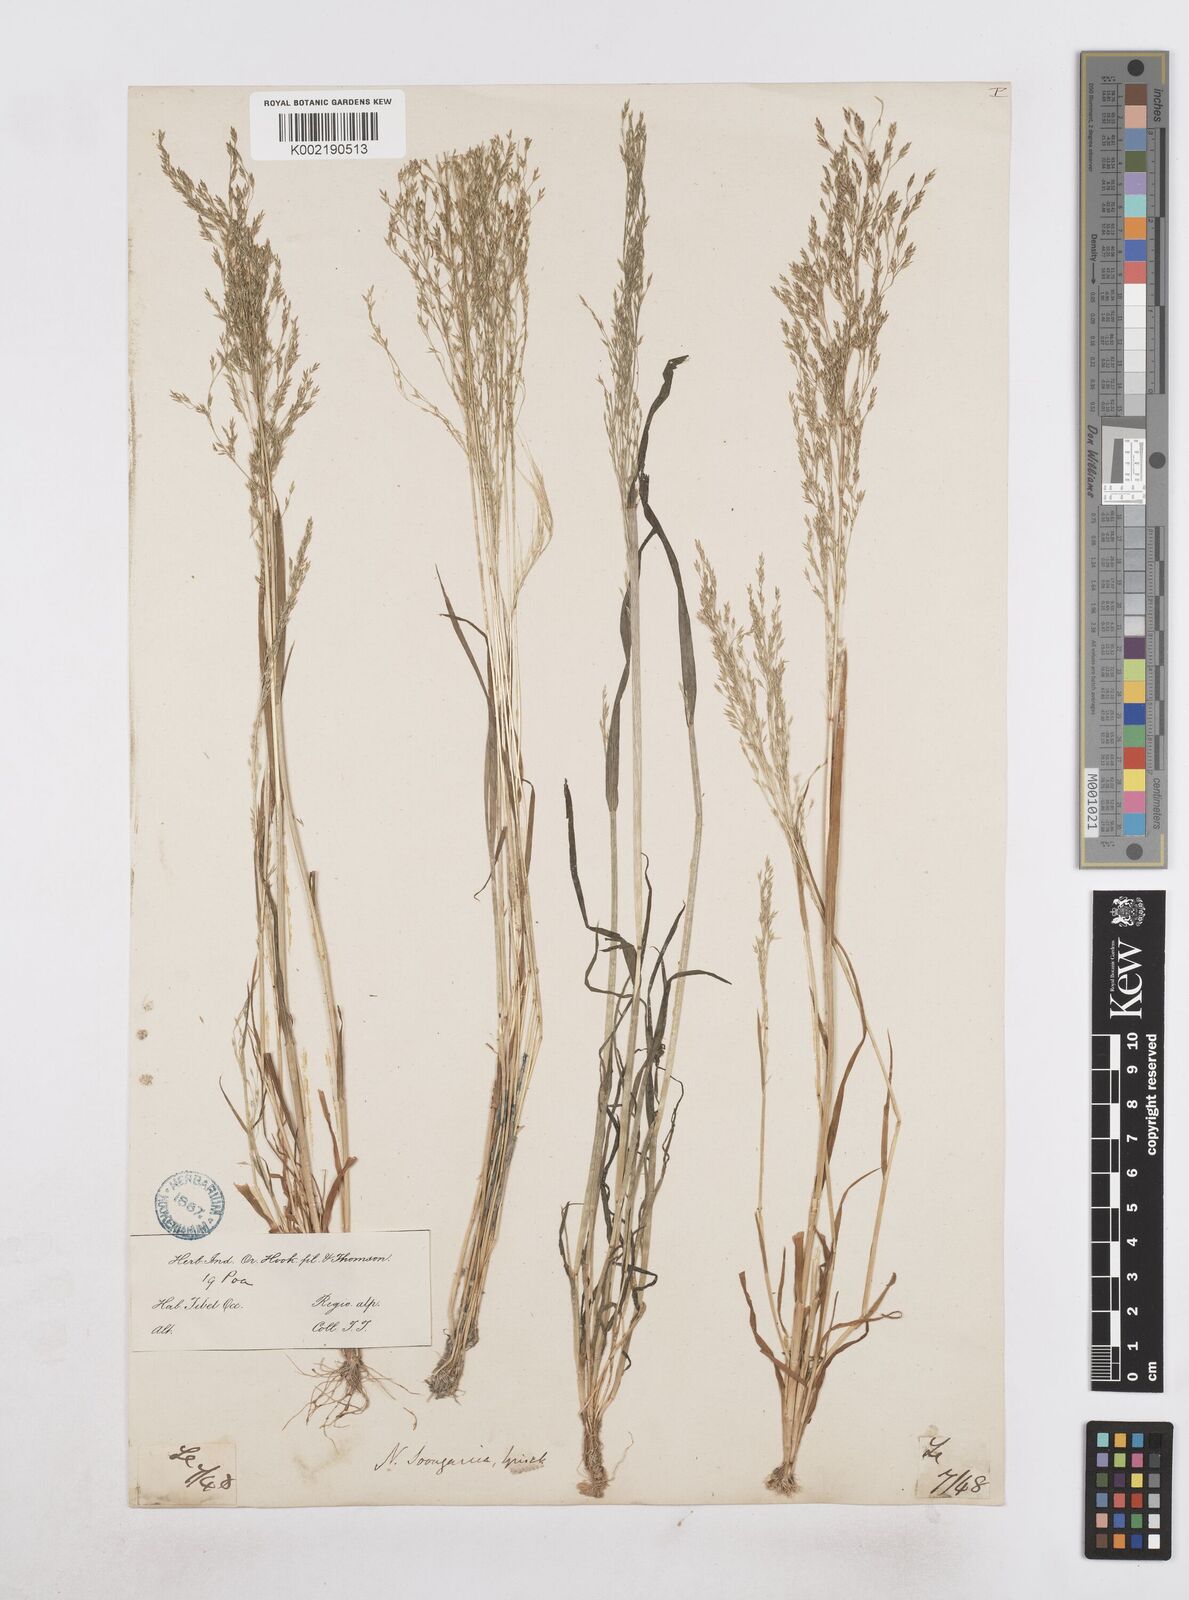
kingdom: Plantae
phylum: Tracheophyta
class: Liliopsida
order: Poales
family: Poaceae
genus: Poa
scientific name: Poa diaphora
